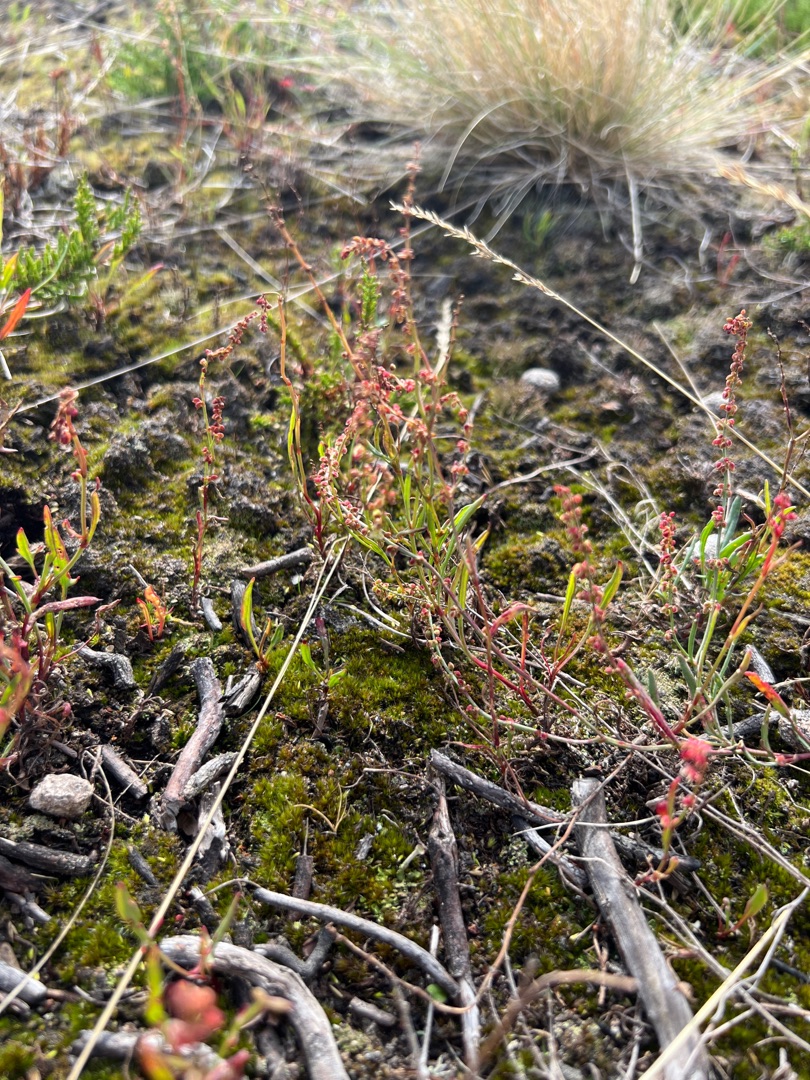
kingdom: Plantae
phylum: Tracheophyta
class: Magnoliopsida
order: Caryophyllales
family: Polygonaceae
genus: Rumex
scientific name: Rumex acetosella
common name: Rødknæ
